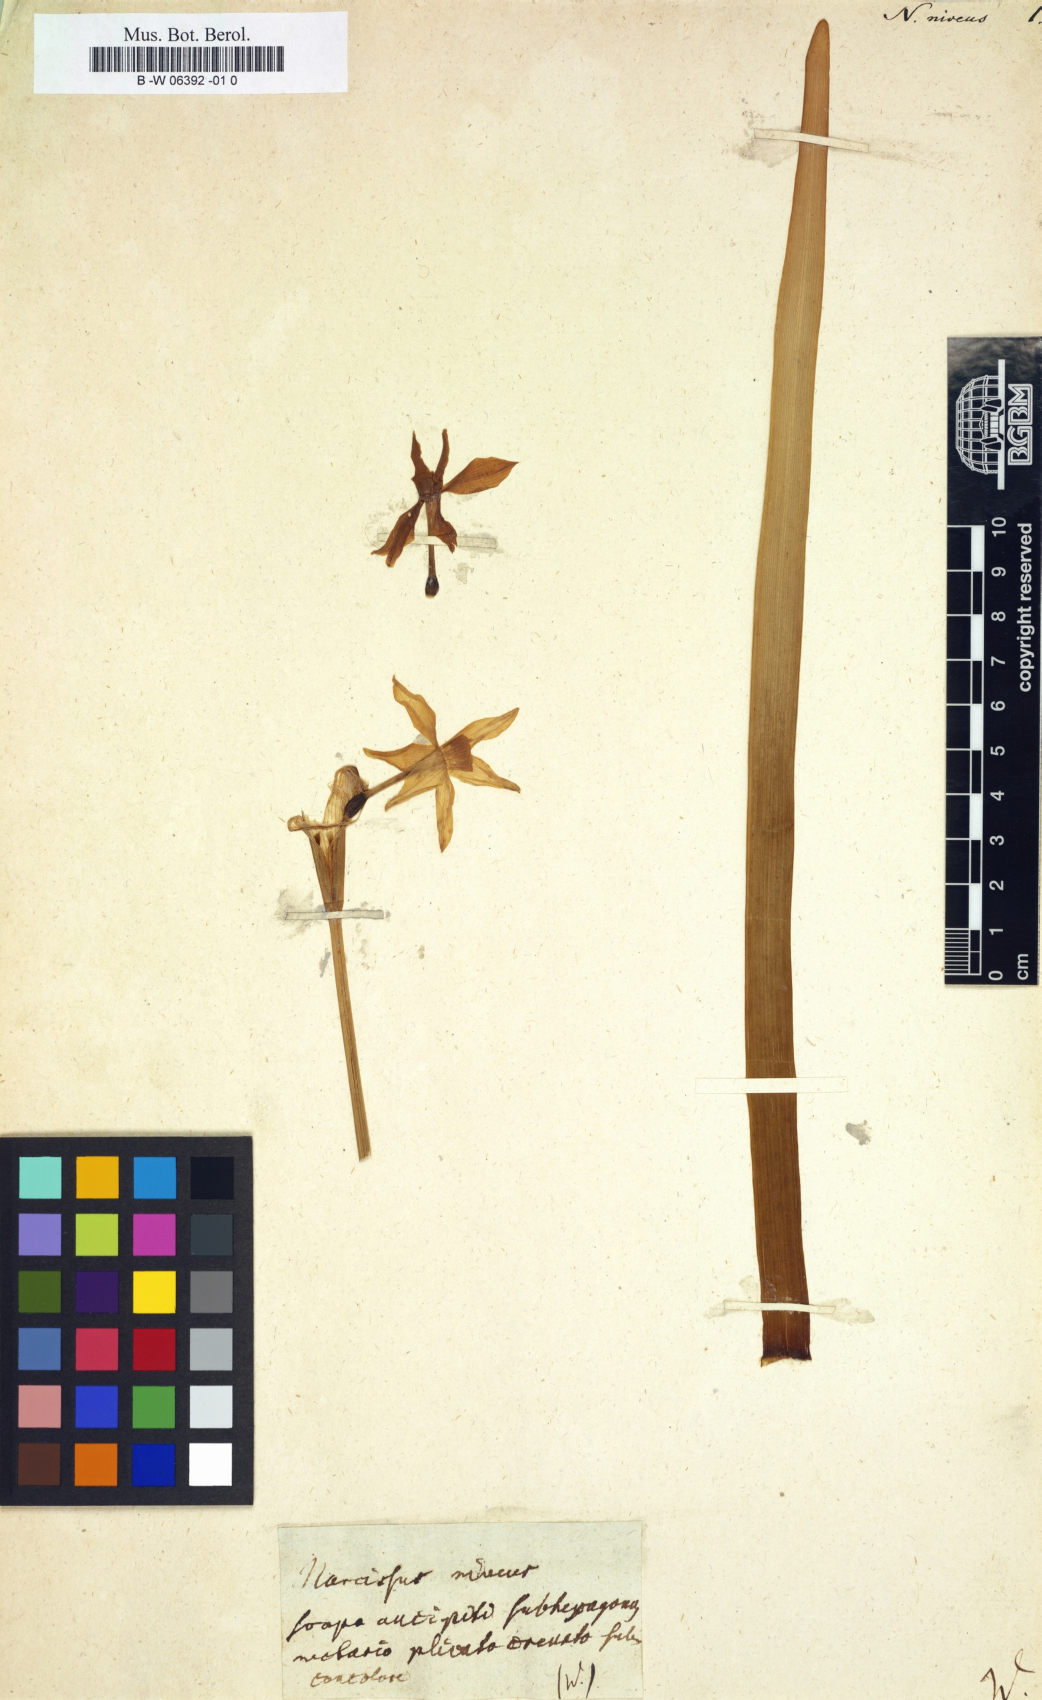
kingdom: Plantae
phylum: Tracheophyta
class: Liliopsida
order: Asparagales
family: Amaryllidaceae
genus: Narcissus
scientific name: Narcissus niveus
